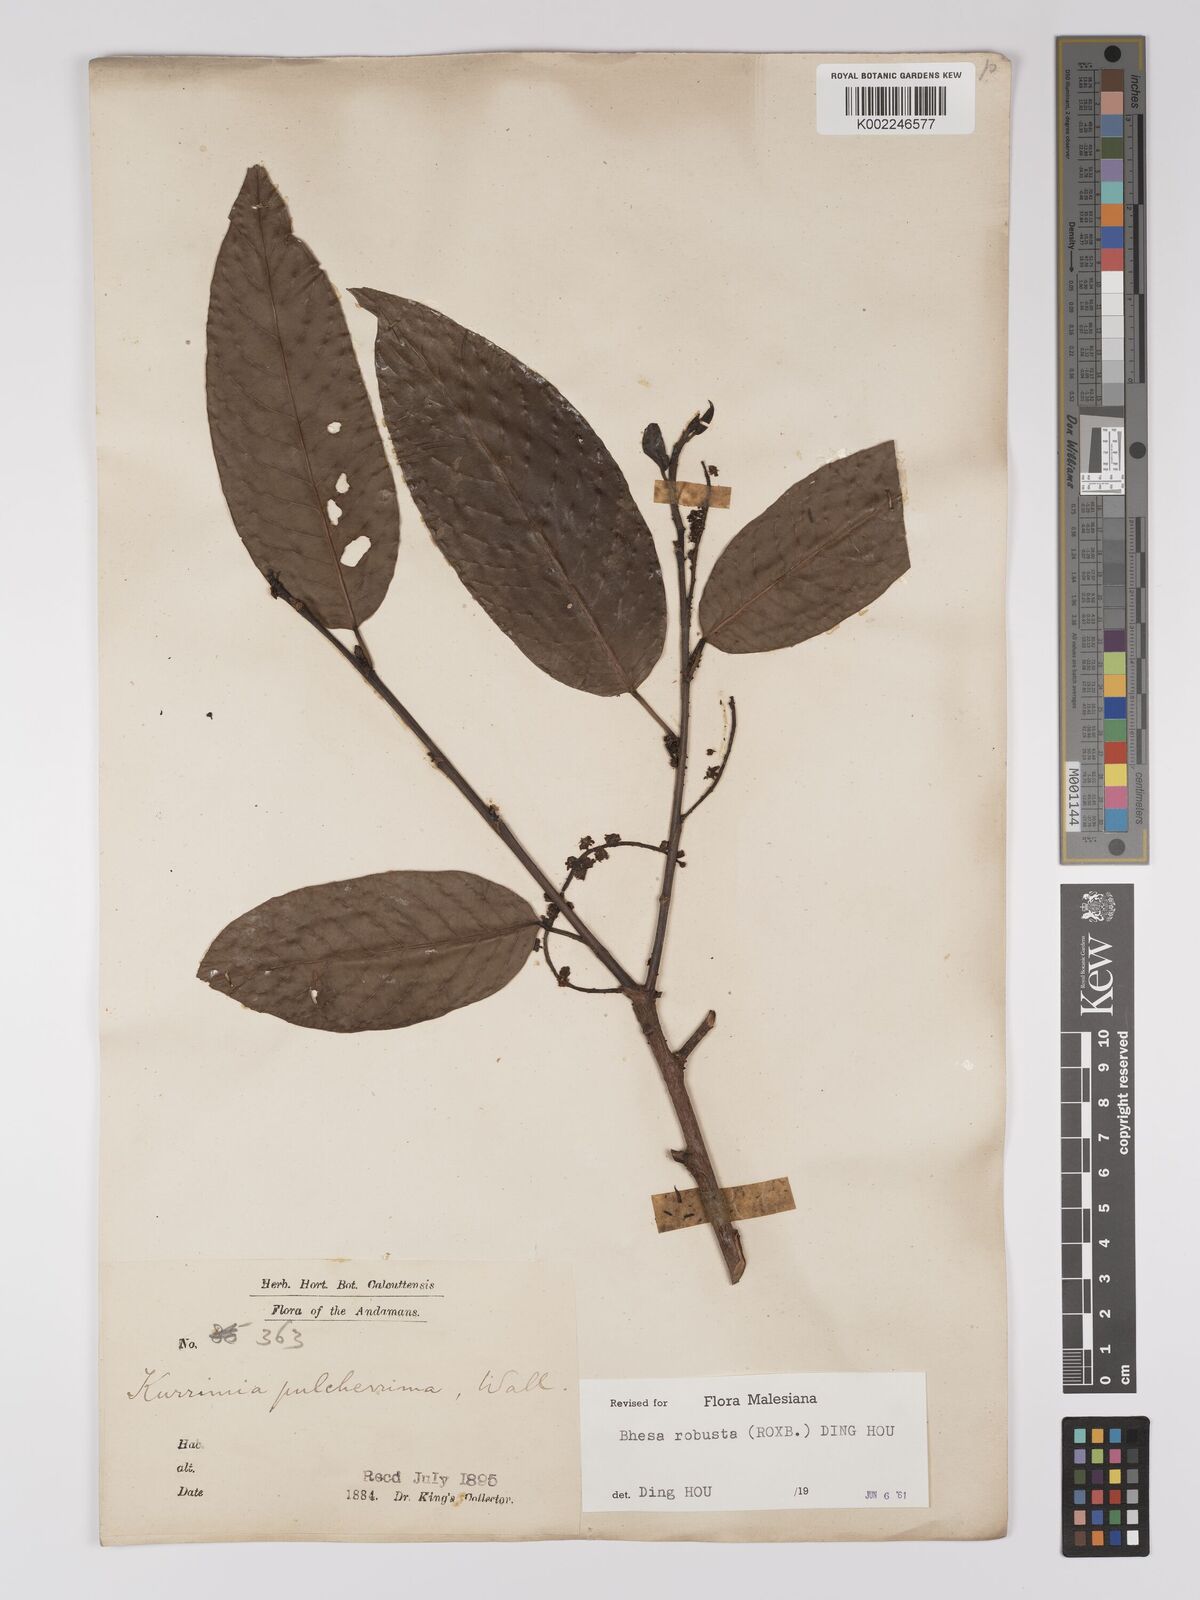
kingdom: Plantae
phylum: Tracheophyta
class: Magnoliopsida
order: Malpighiales
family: Centroplacaceae
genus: Bhesa
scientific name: Bhesa robusta
